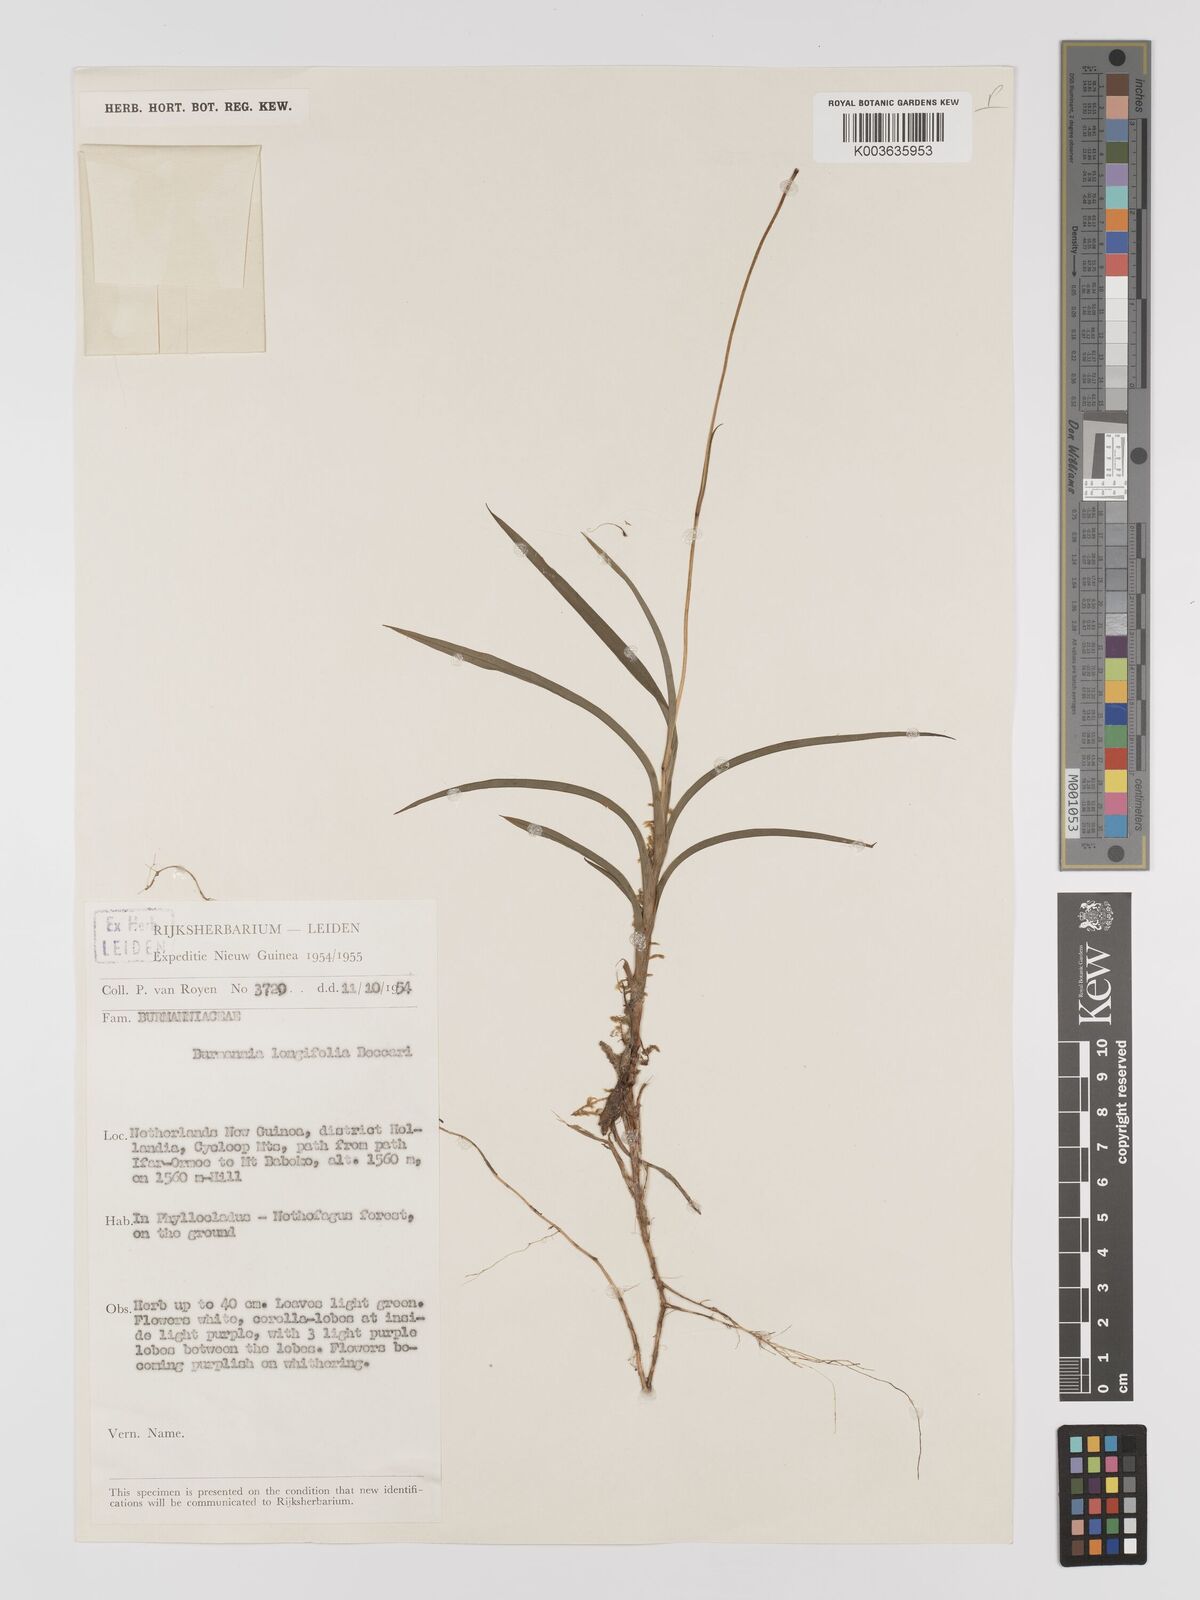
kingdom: Plantae
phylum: Tracheophyta
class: Liliopsida
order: Dioscoreales
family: Burmanniaceae
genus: Burmannia
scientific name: Burmannia longifolia
